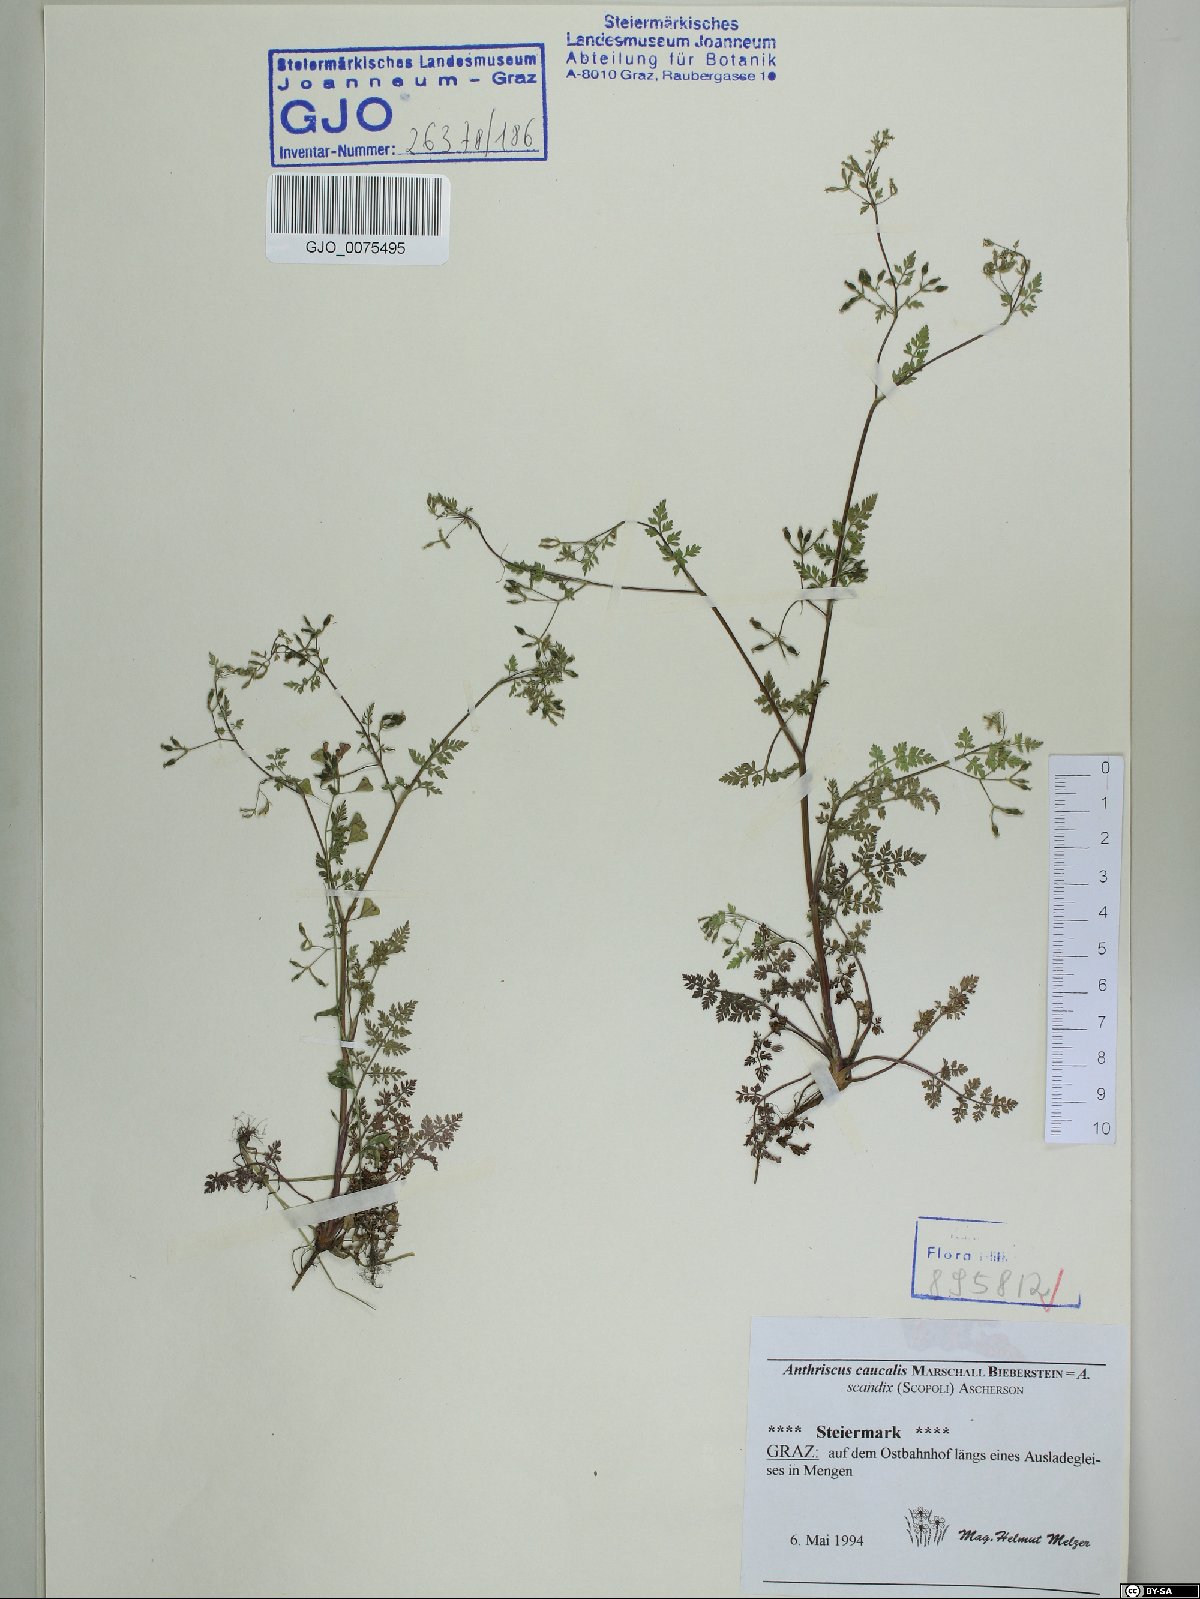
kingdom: Plantae
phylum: Tracheophyta
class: Magnoliopsida
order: Apiales
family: Apiaceae
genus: Anthriscus
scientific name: Anthriscus caucalis
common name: Bur chervil
